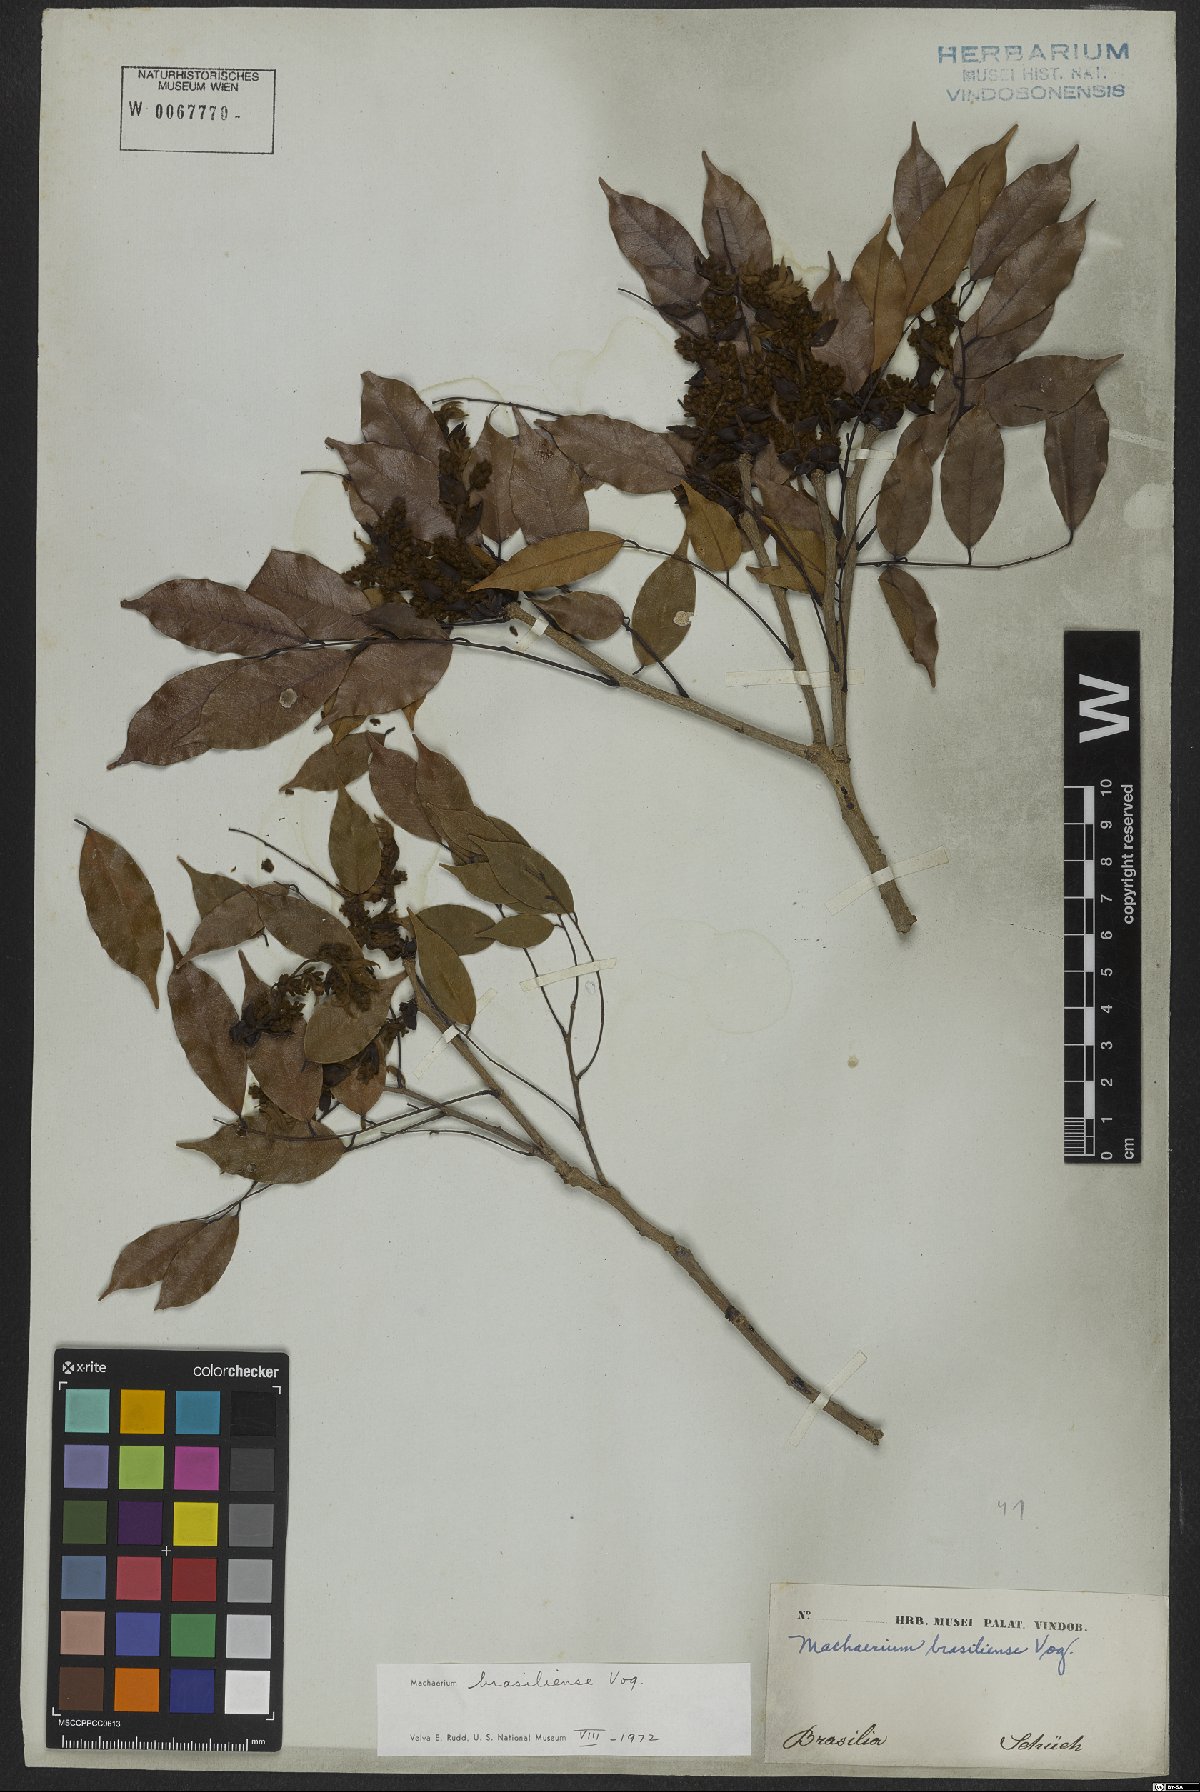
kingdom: Plantae
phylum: Tracheophyta
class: Magnoliopsida
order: Fabales
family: Fabaceae
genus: Machaerium
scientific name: Machaerium brasiliense
